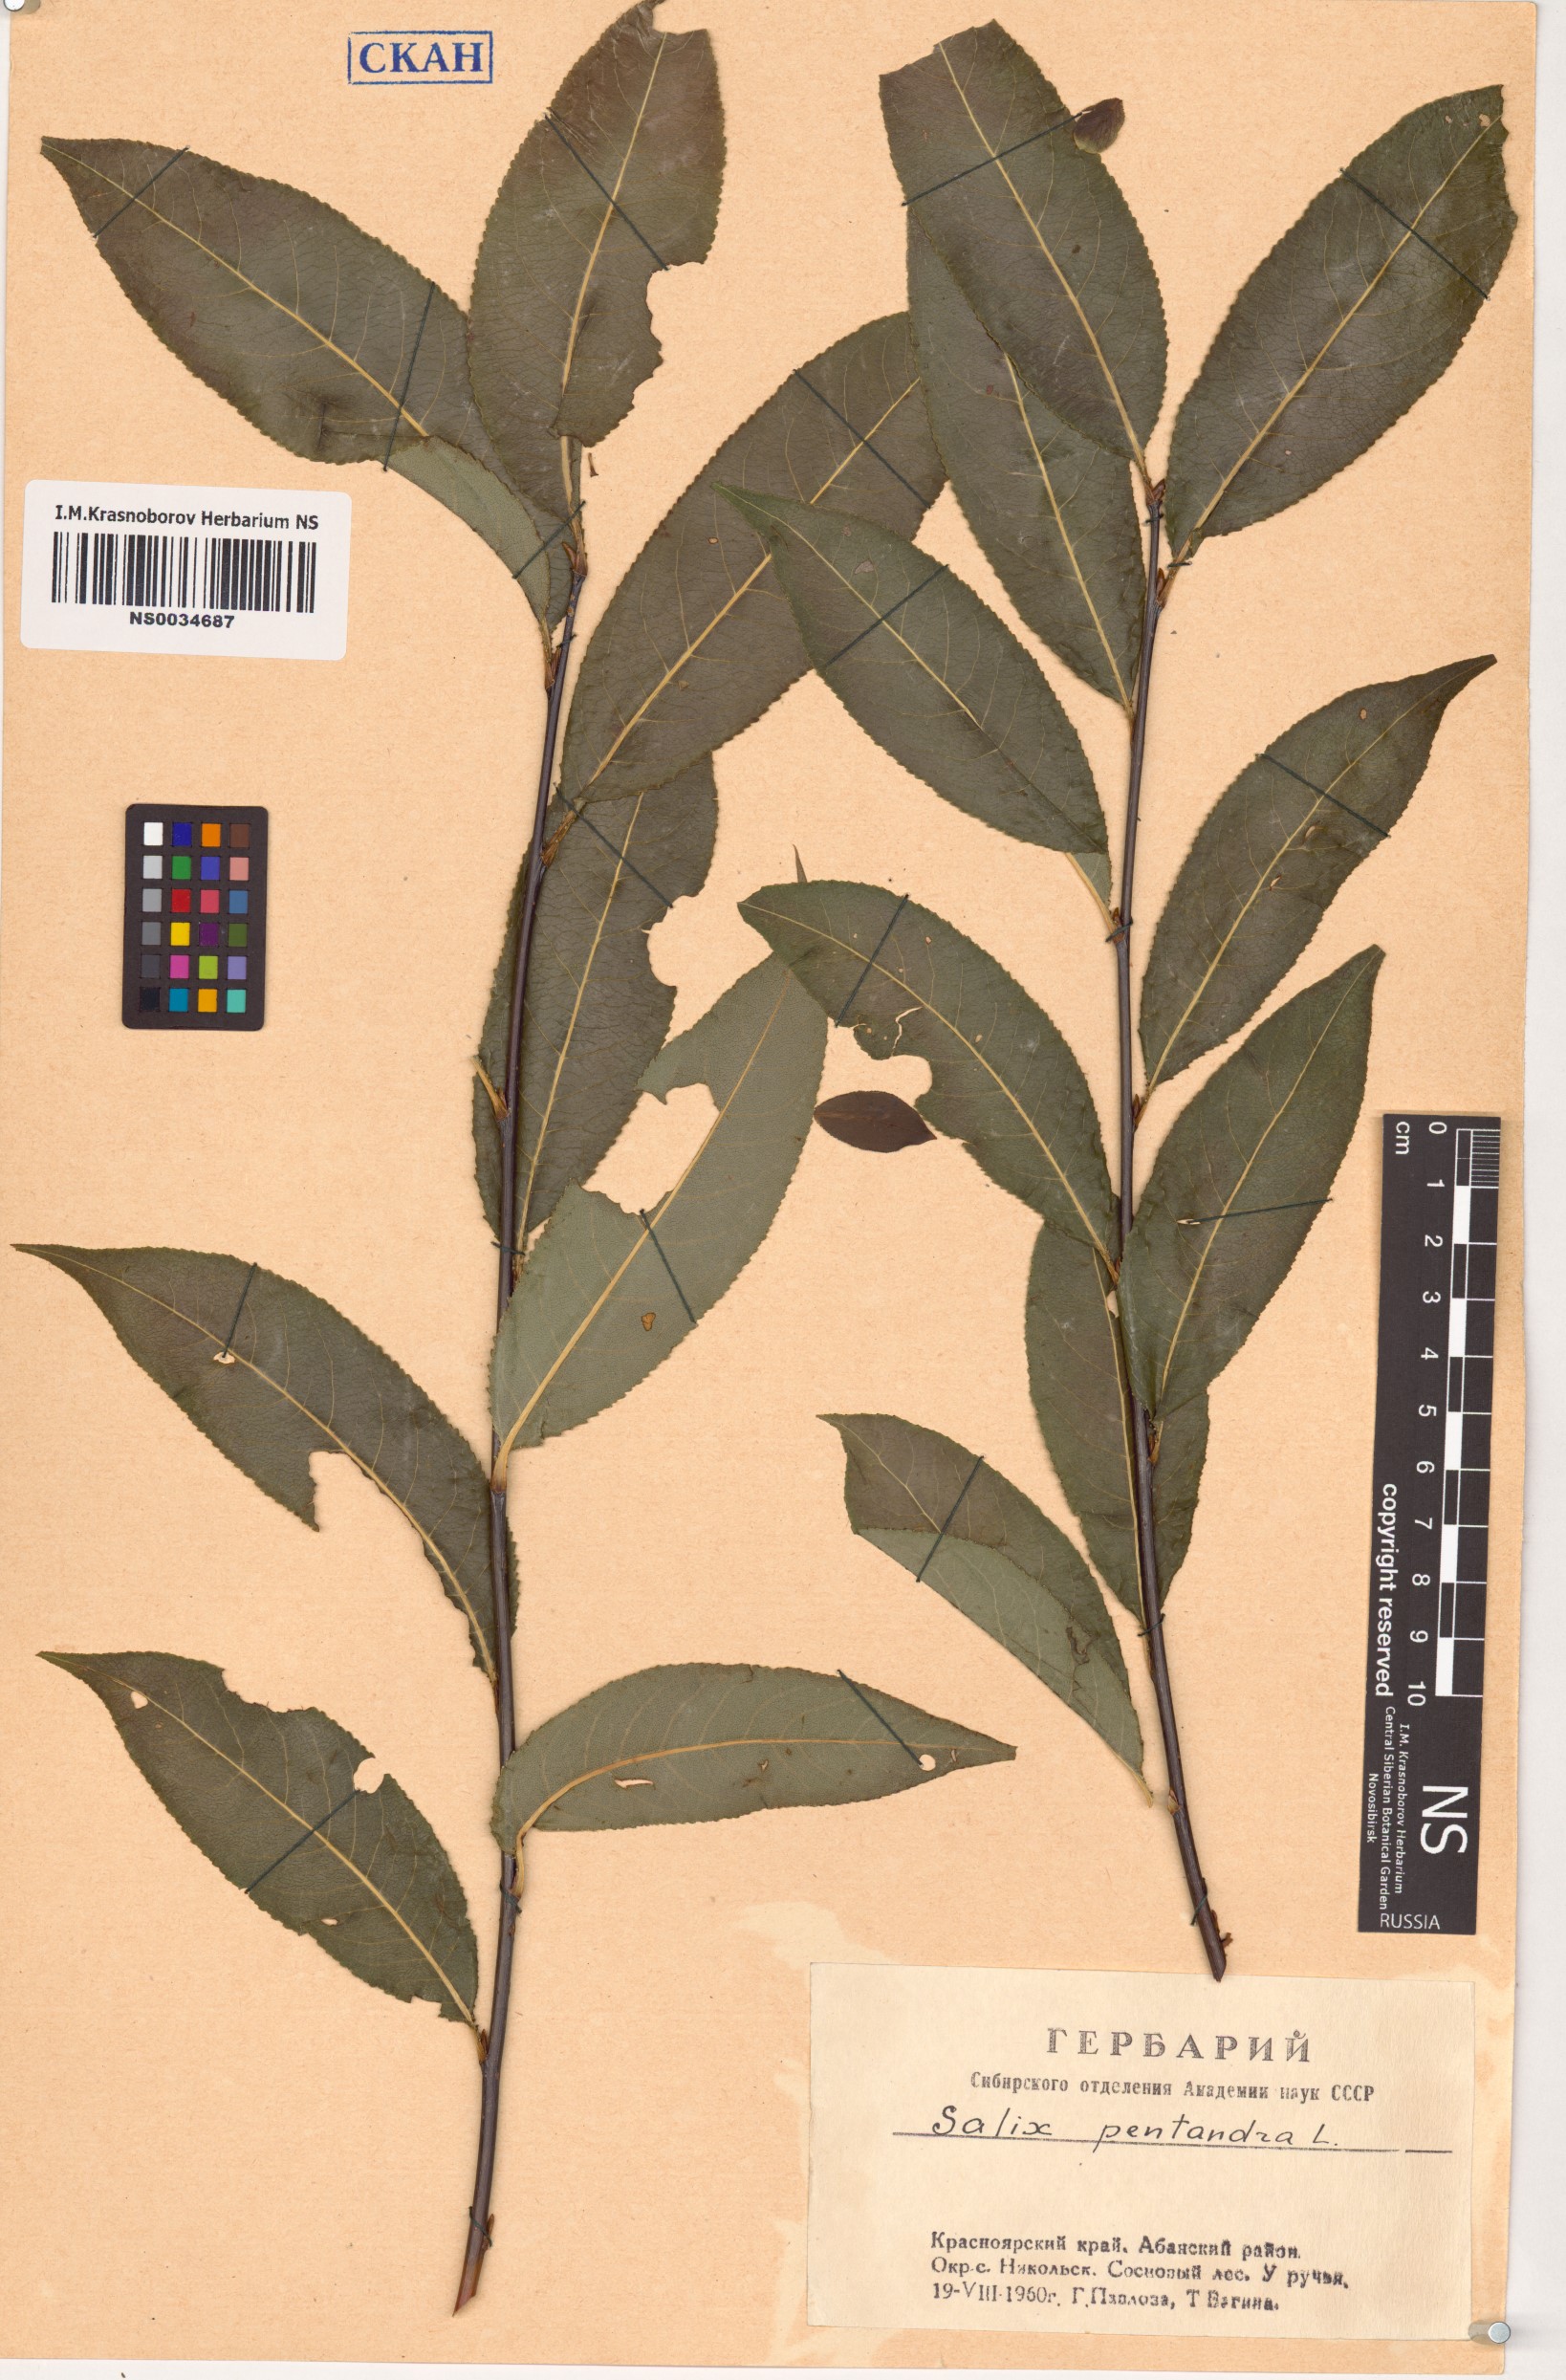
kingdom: Plantae
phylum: Tracheophyta
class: Magnoliopsida
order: Malpighiales
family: Salicaceae
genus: Salix
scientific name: Salix pentandra
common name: Bay willow
